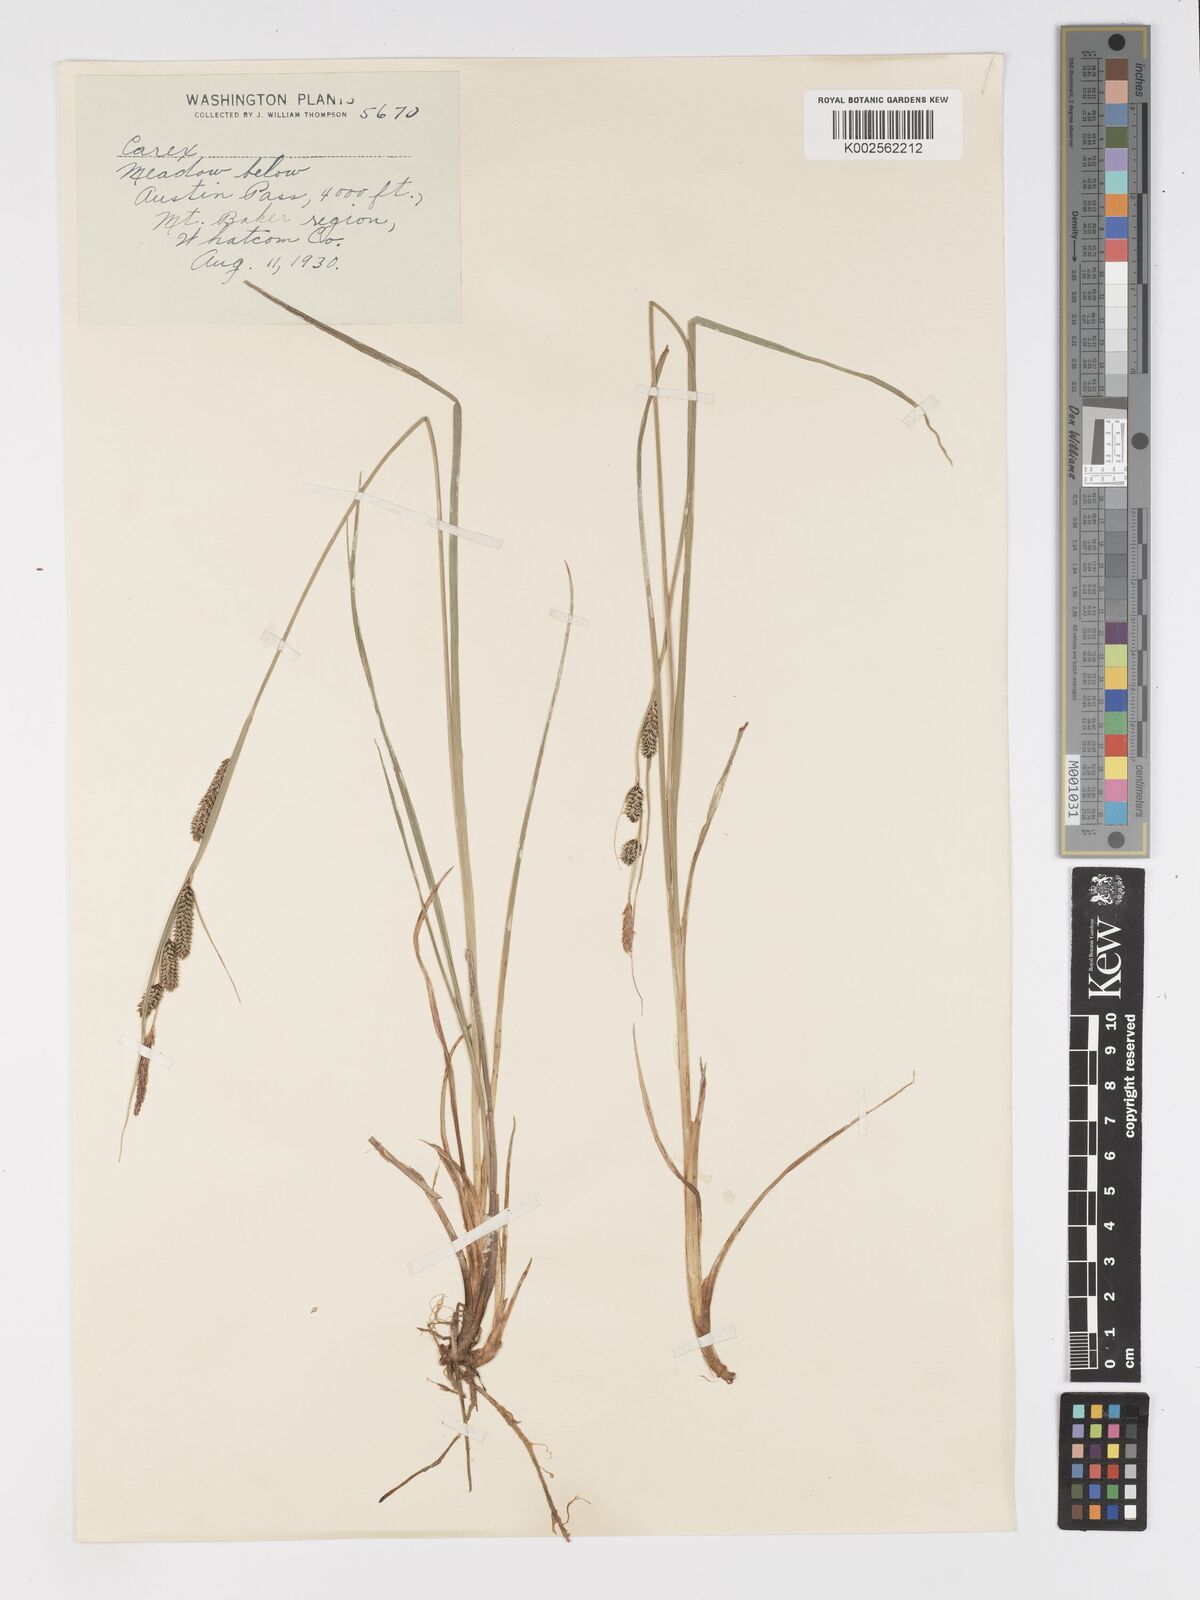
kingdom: Plantae
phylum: Tracheophyta
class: Liliopsida
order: Poales
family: Cyperaceae
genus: Carex
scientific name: Carex nigra
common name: Common sedge
